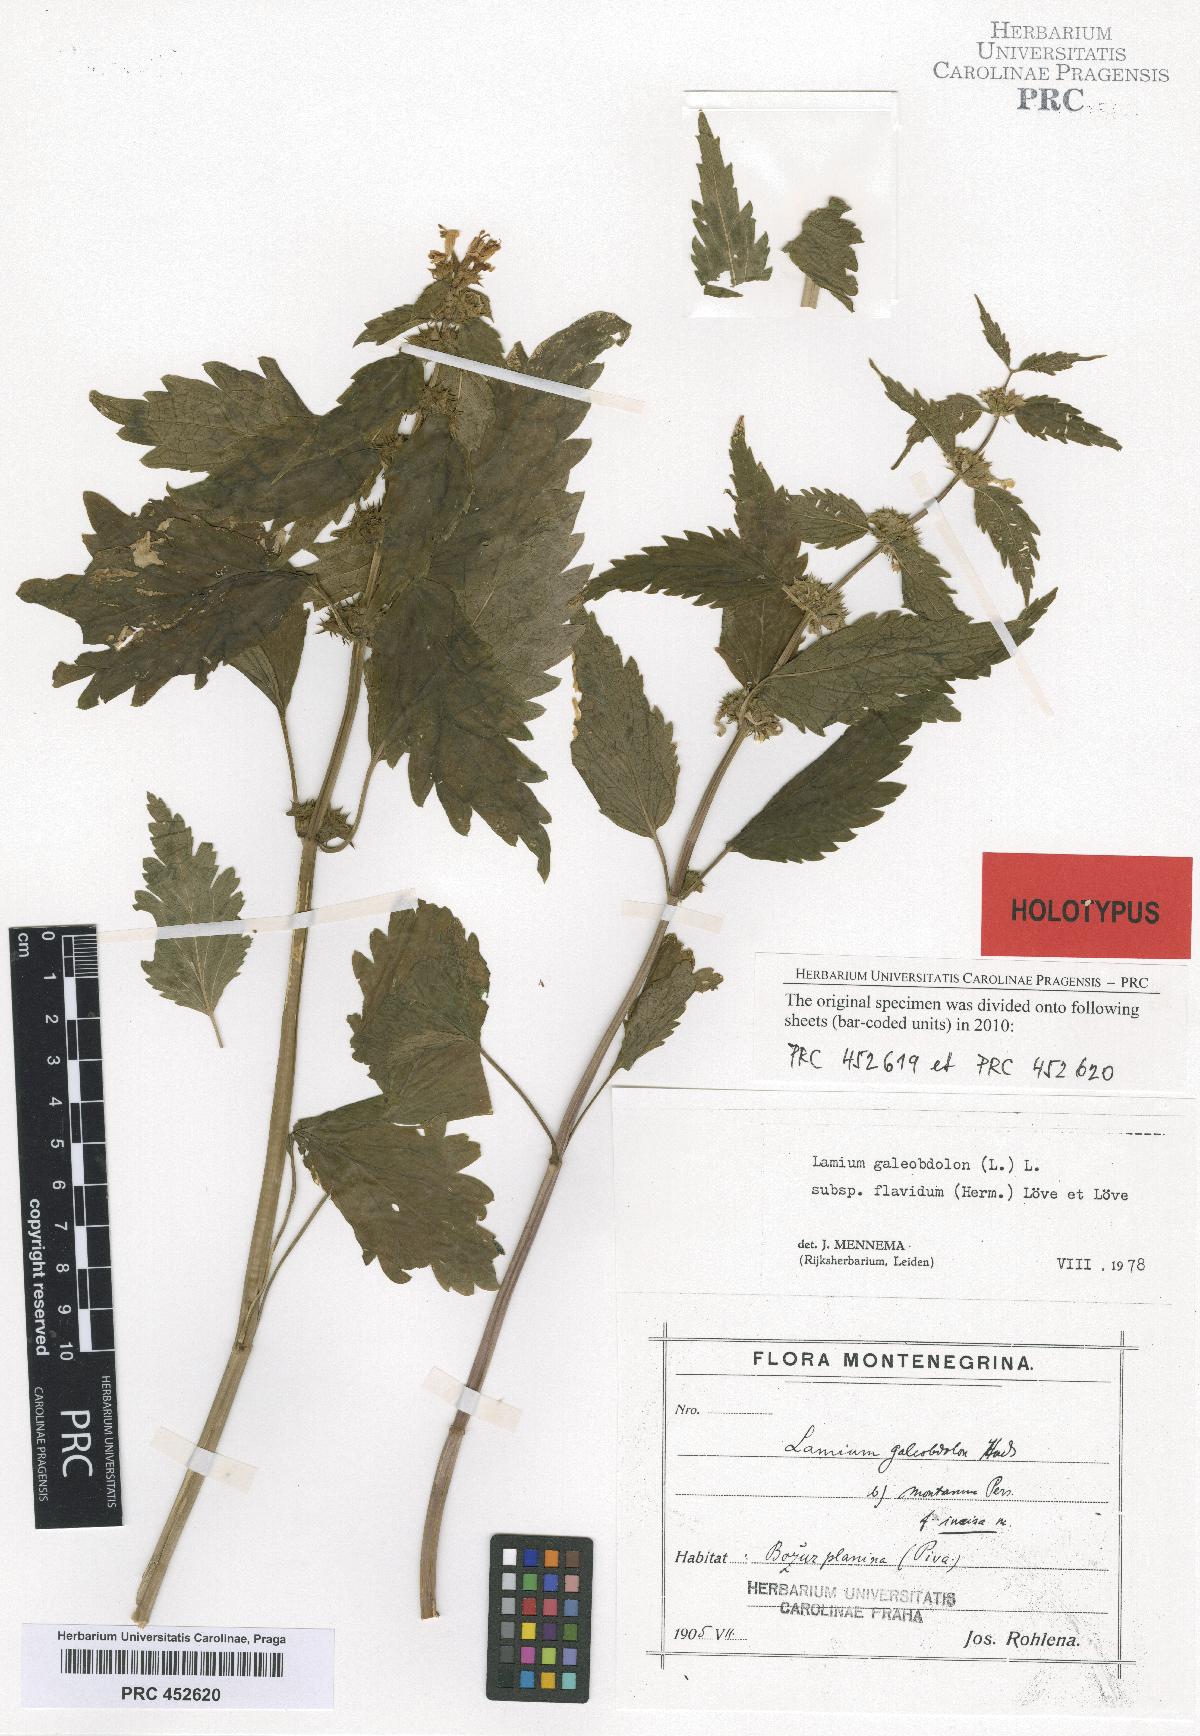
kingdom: Plantae
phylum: Tracheophyta
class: Magnoliopsida
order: Lamiales
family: Lamiaceae
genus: Lamium
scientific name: Lamium galeobdolon
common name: Yellow archangel
